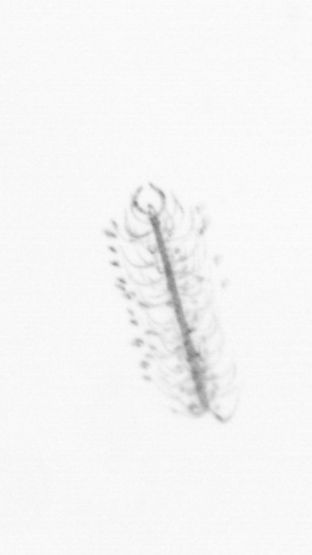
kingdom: Chromista
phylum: Ochrophyta
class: Bacillariophyceae
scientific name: Bacillariophyceae
